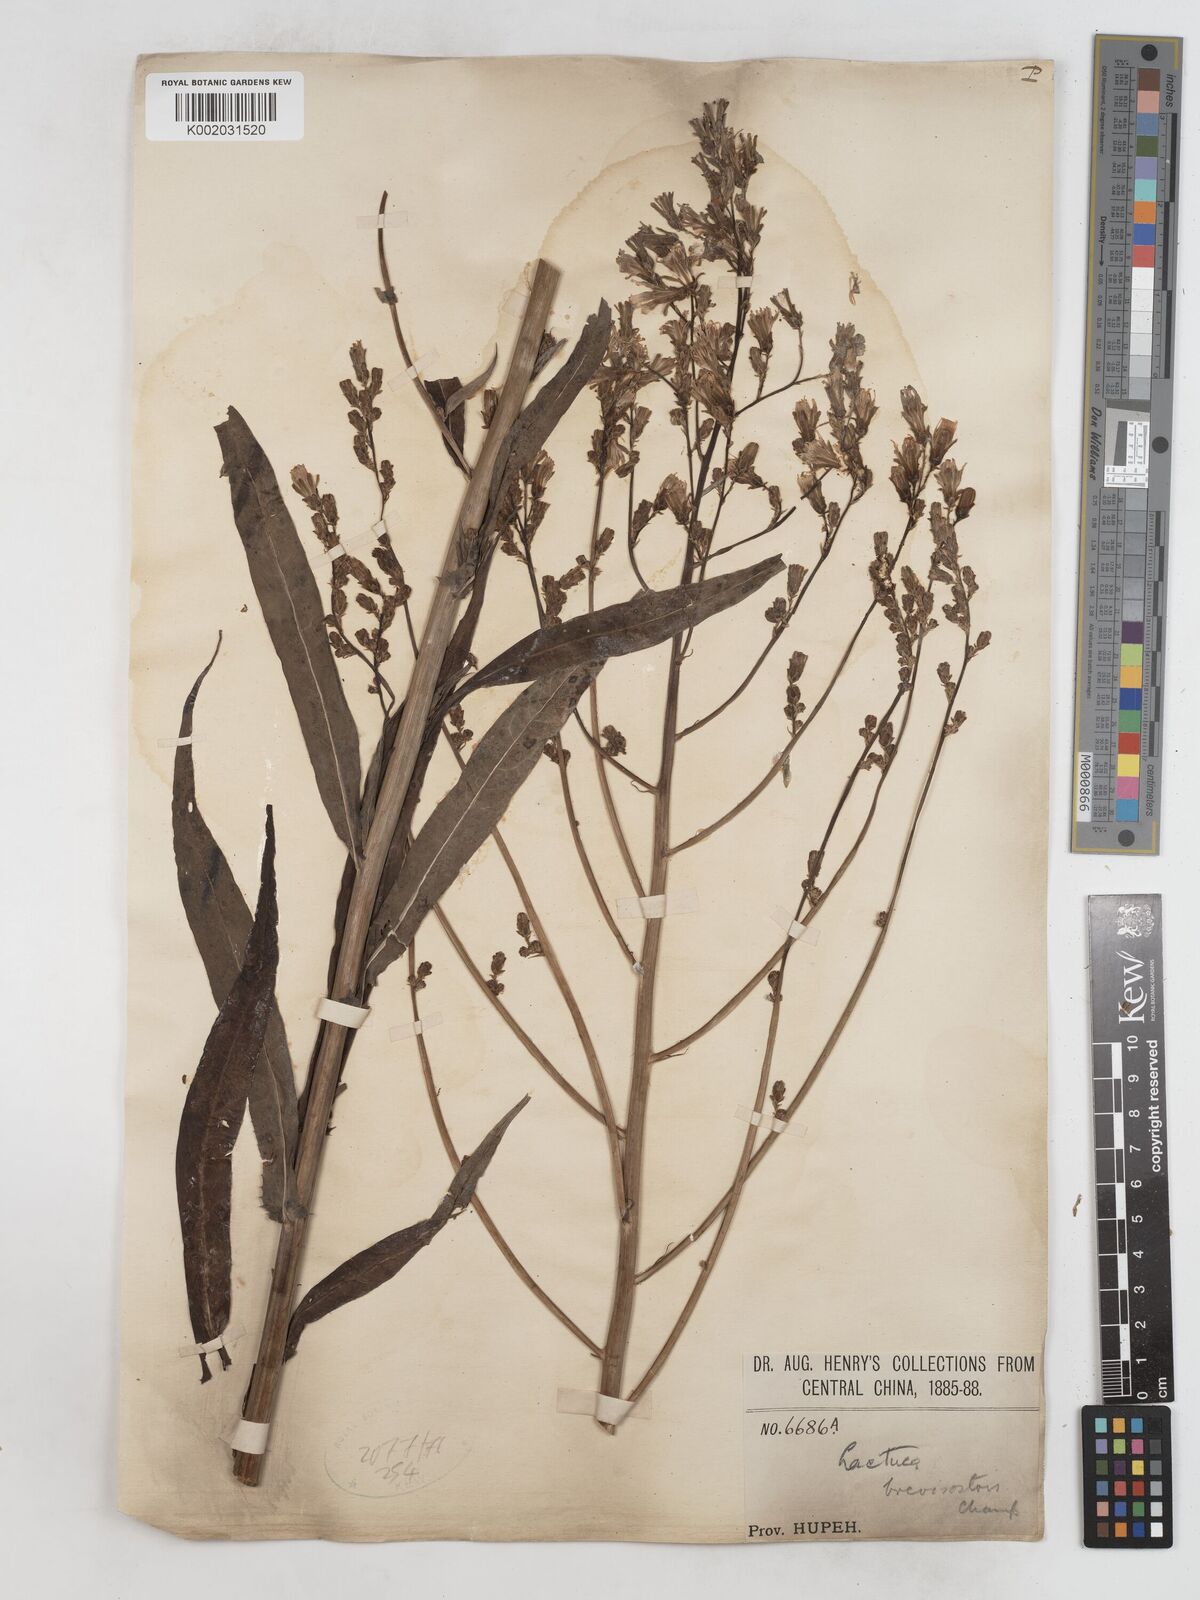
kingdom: Plantae
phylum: Tracheophyta
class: Magnoliopsida
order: Asterales
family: Asteraceae
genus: Lactuca
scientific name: Lactuca indica
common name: Wild lettuce
